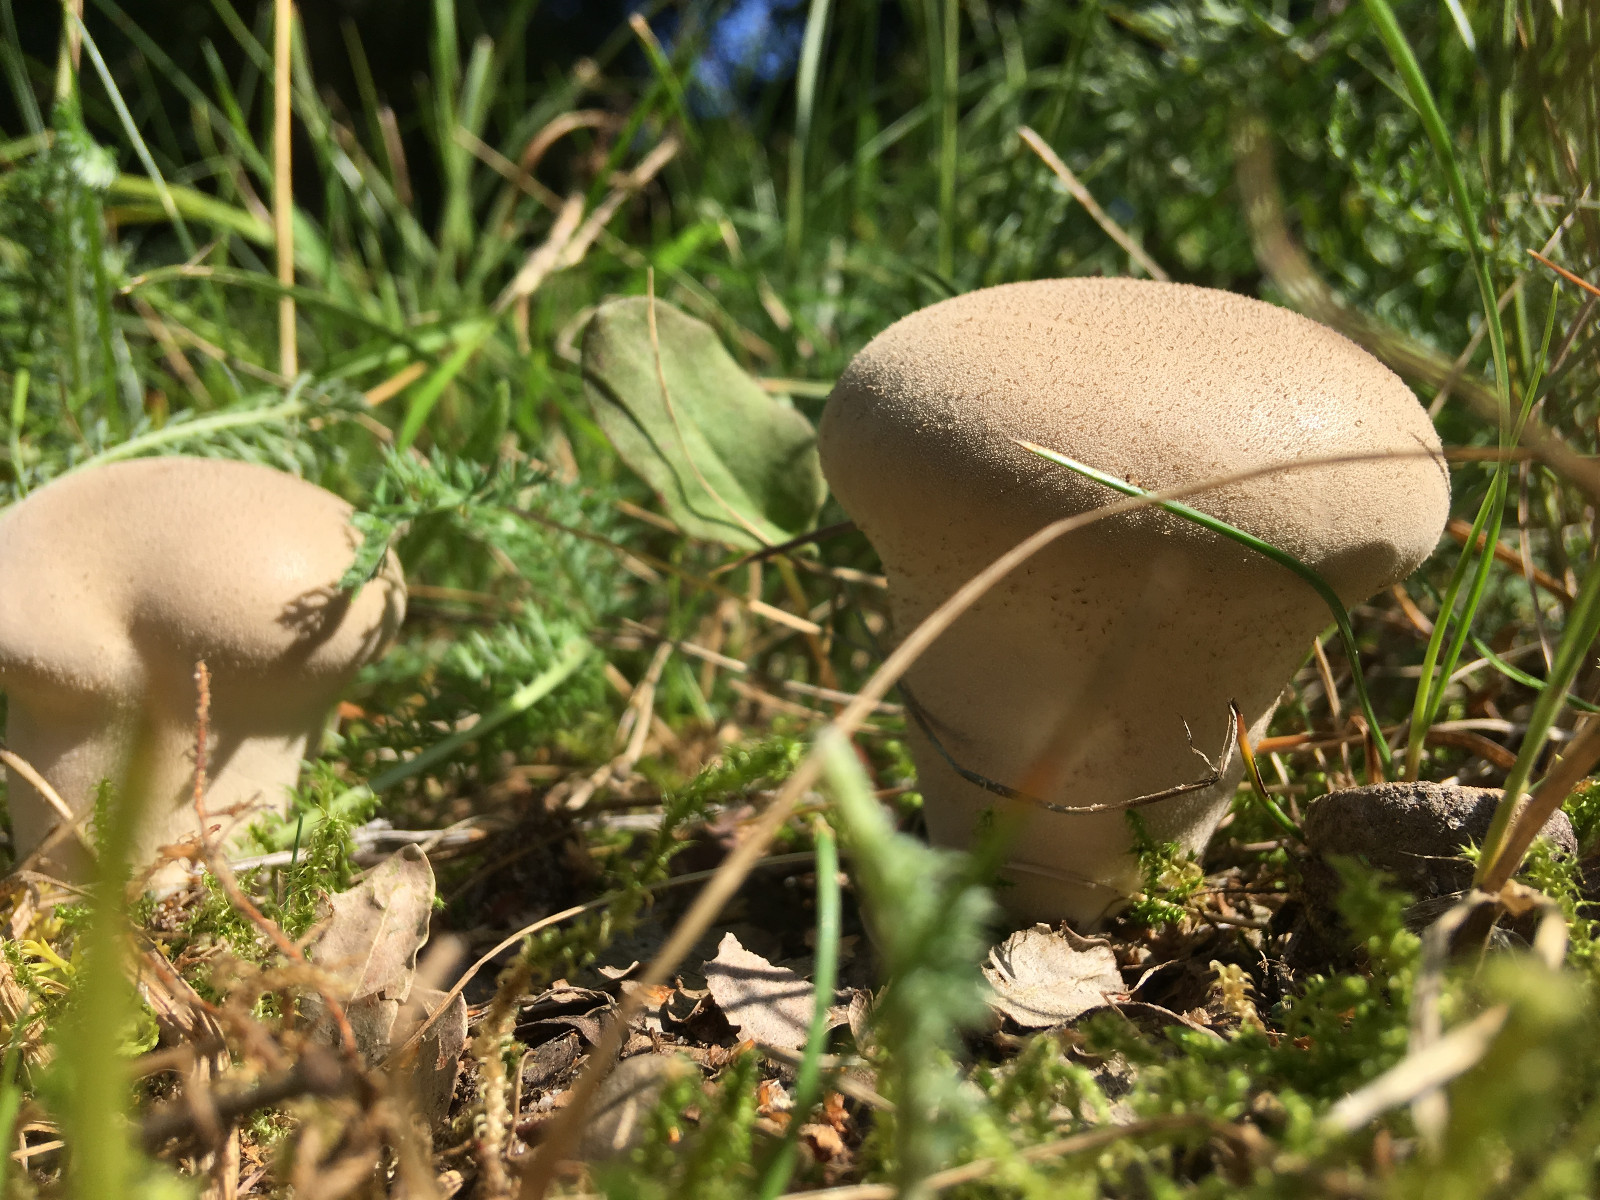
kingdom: Fungi
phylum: Basidiomycota
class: Agaricomycetes
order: Agaricales
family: Agaricaceae
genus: Lycoperdon
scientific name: Lycoperdon
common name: støvbold
